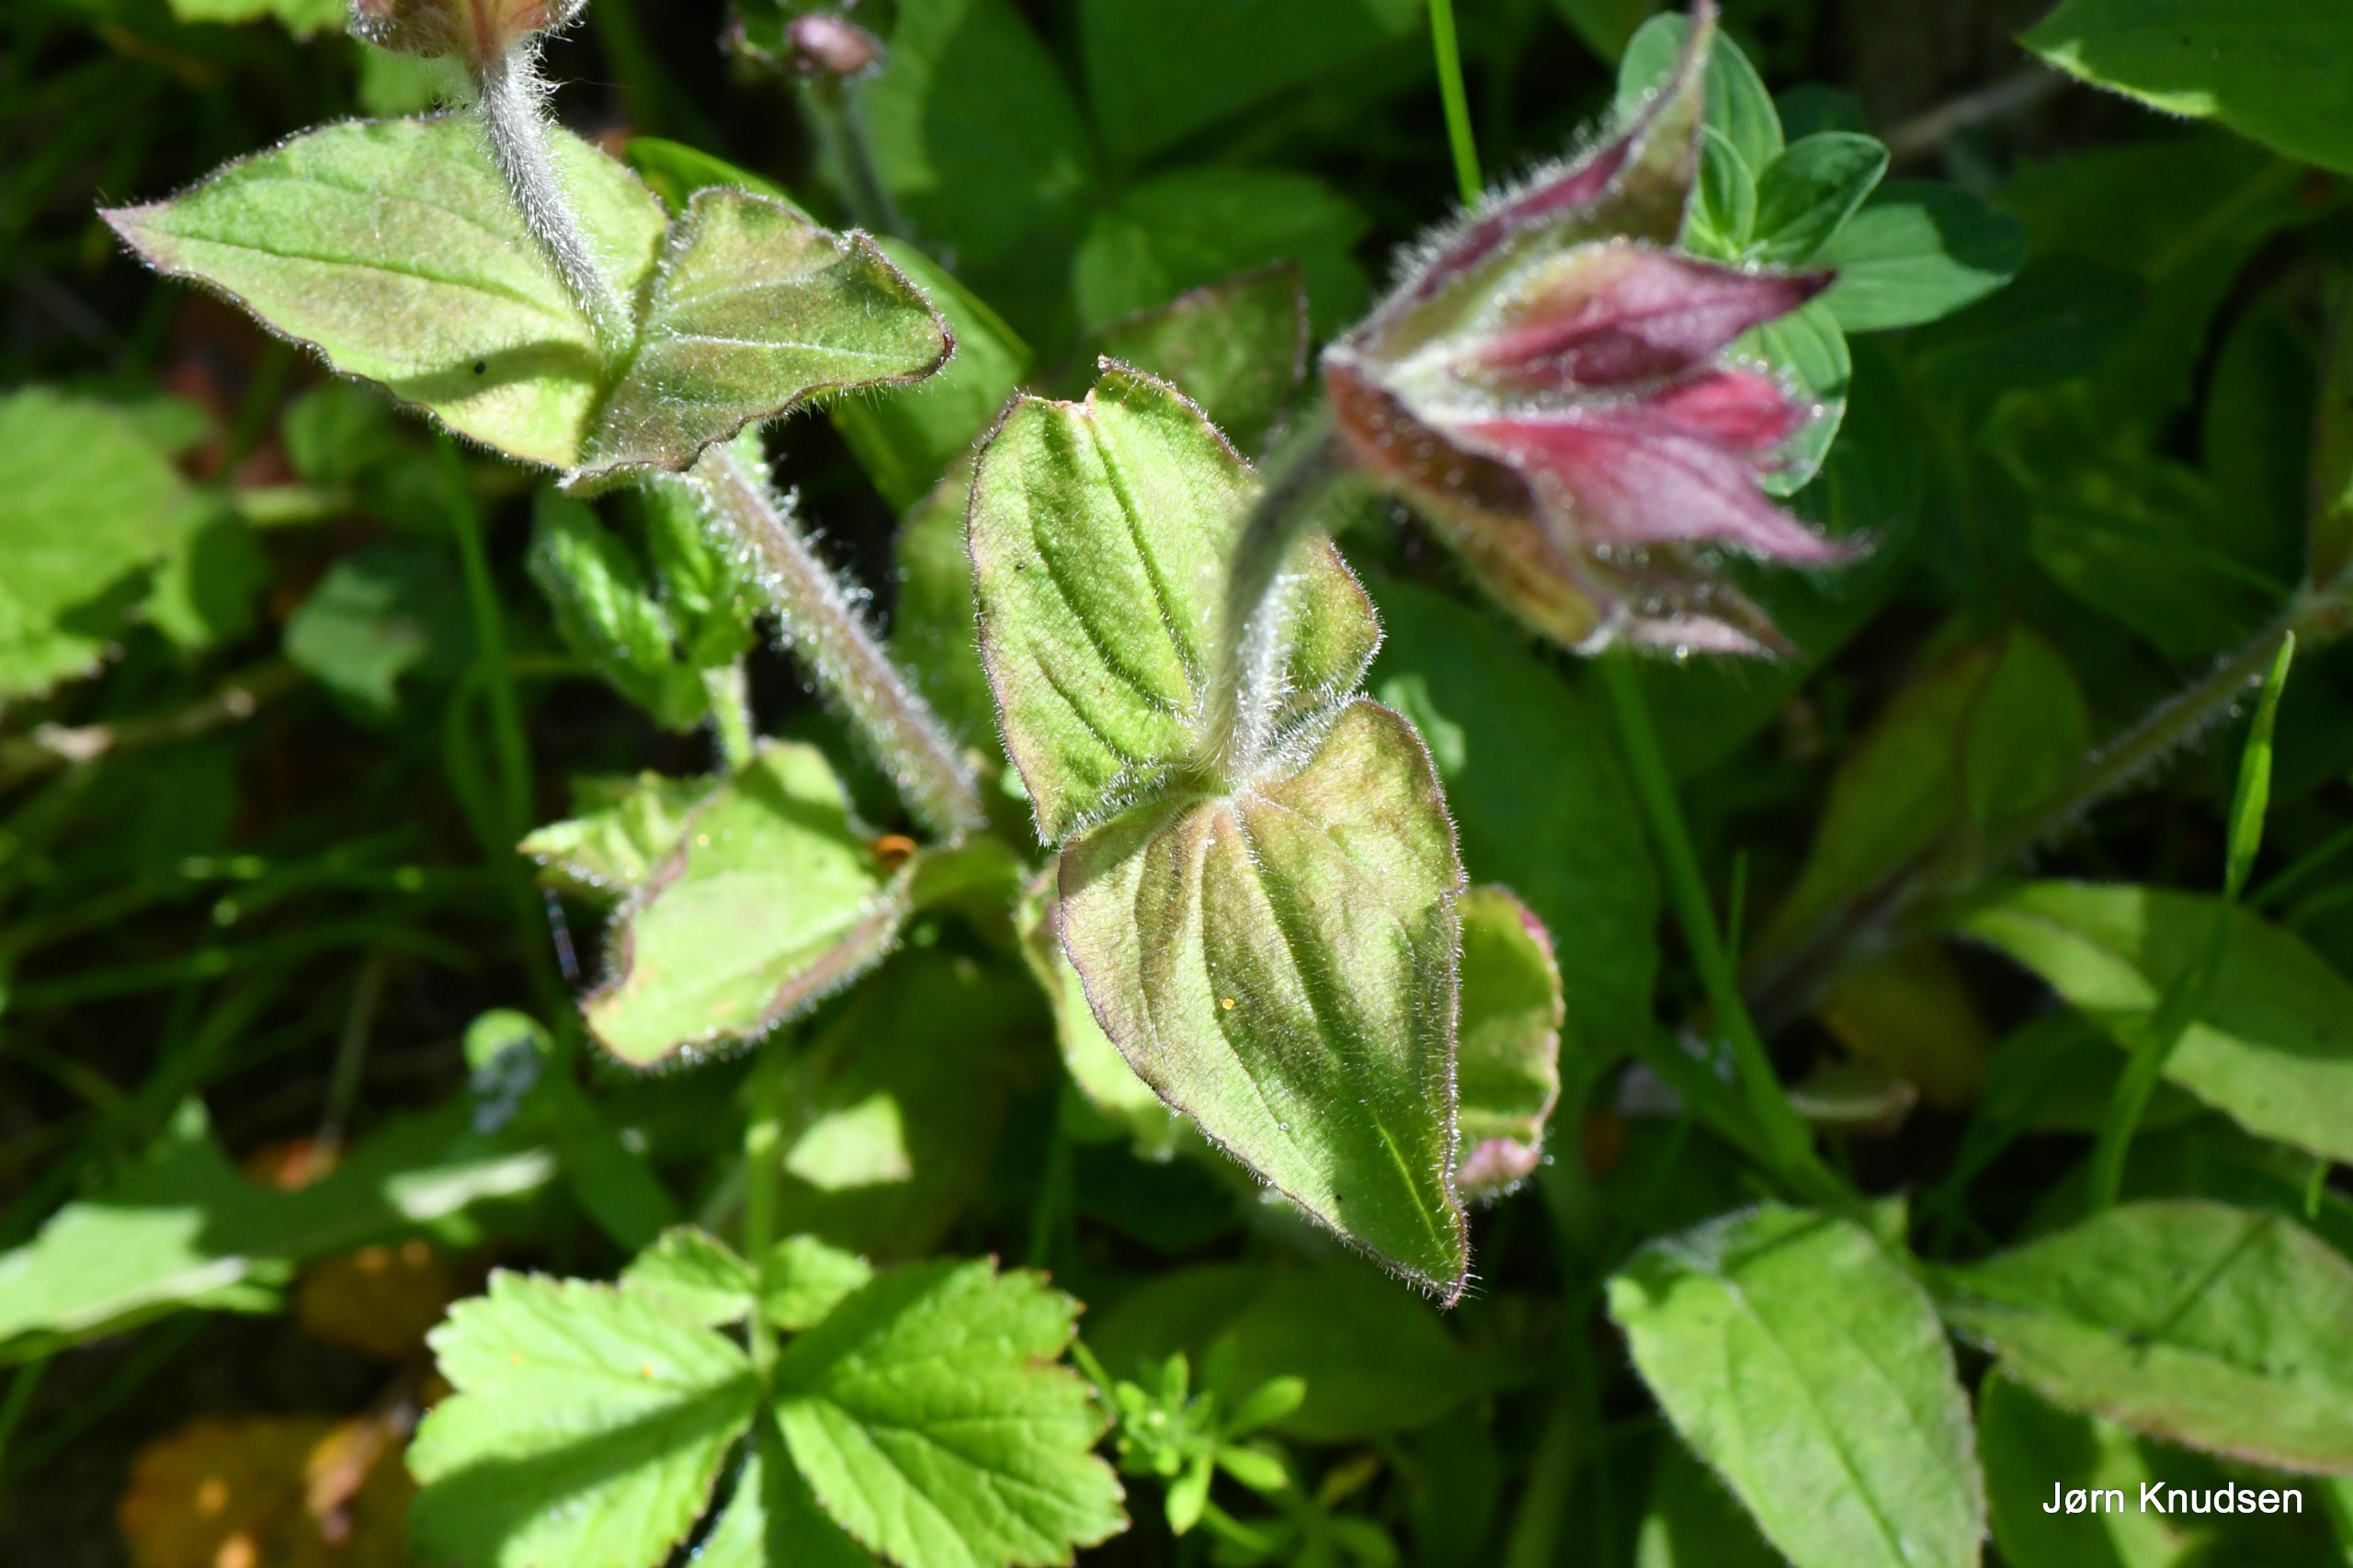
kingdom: Plantae
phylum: Tracheophyta
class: Magnoliopsida
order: Caryophyllales
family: Caryophyllaceae
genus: Silene
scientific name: Silene dioica
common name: Dagpragtstjerne
